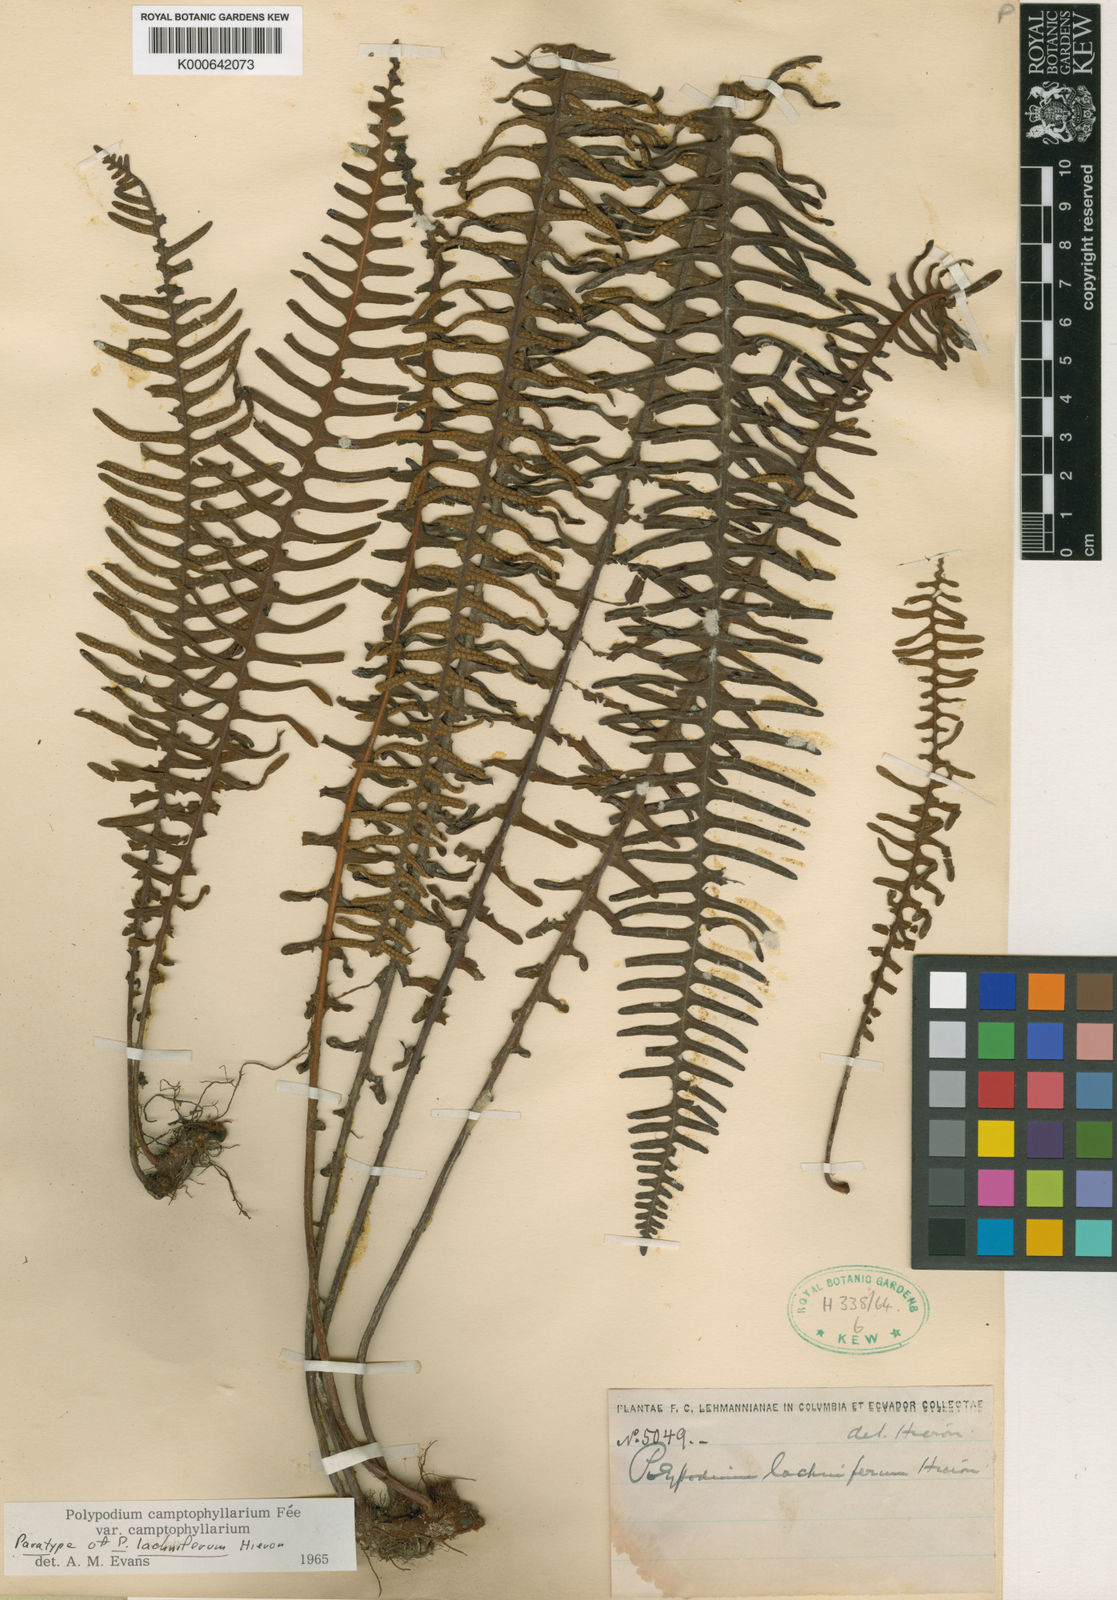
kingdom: Plantae
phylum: Tracheophyta
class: Polypodiopsida
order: Polypodiales
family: Polypodiaceae
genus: Pecluma
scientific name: Pecluma
